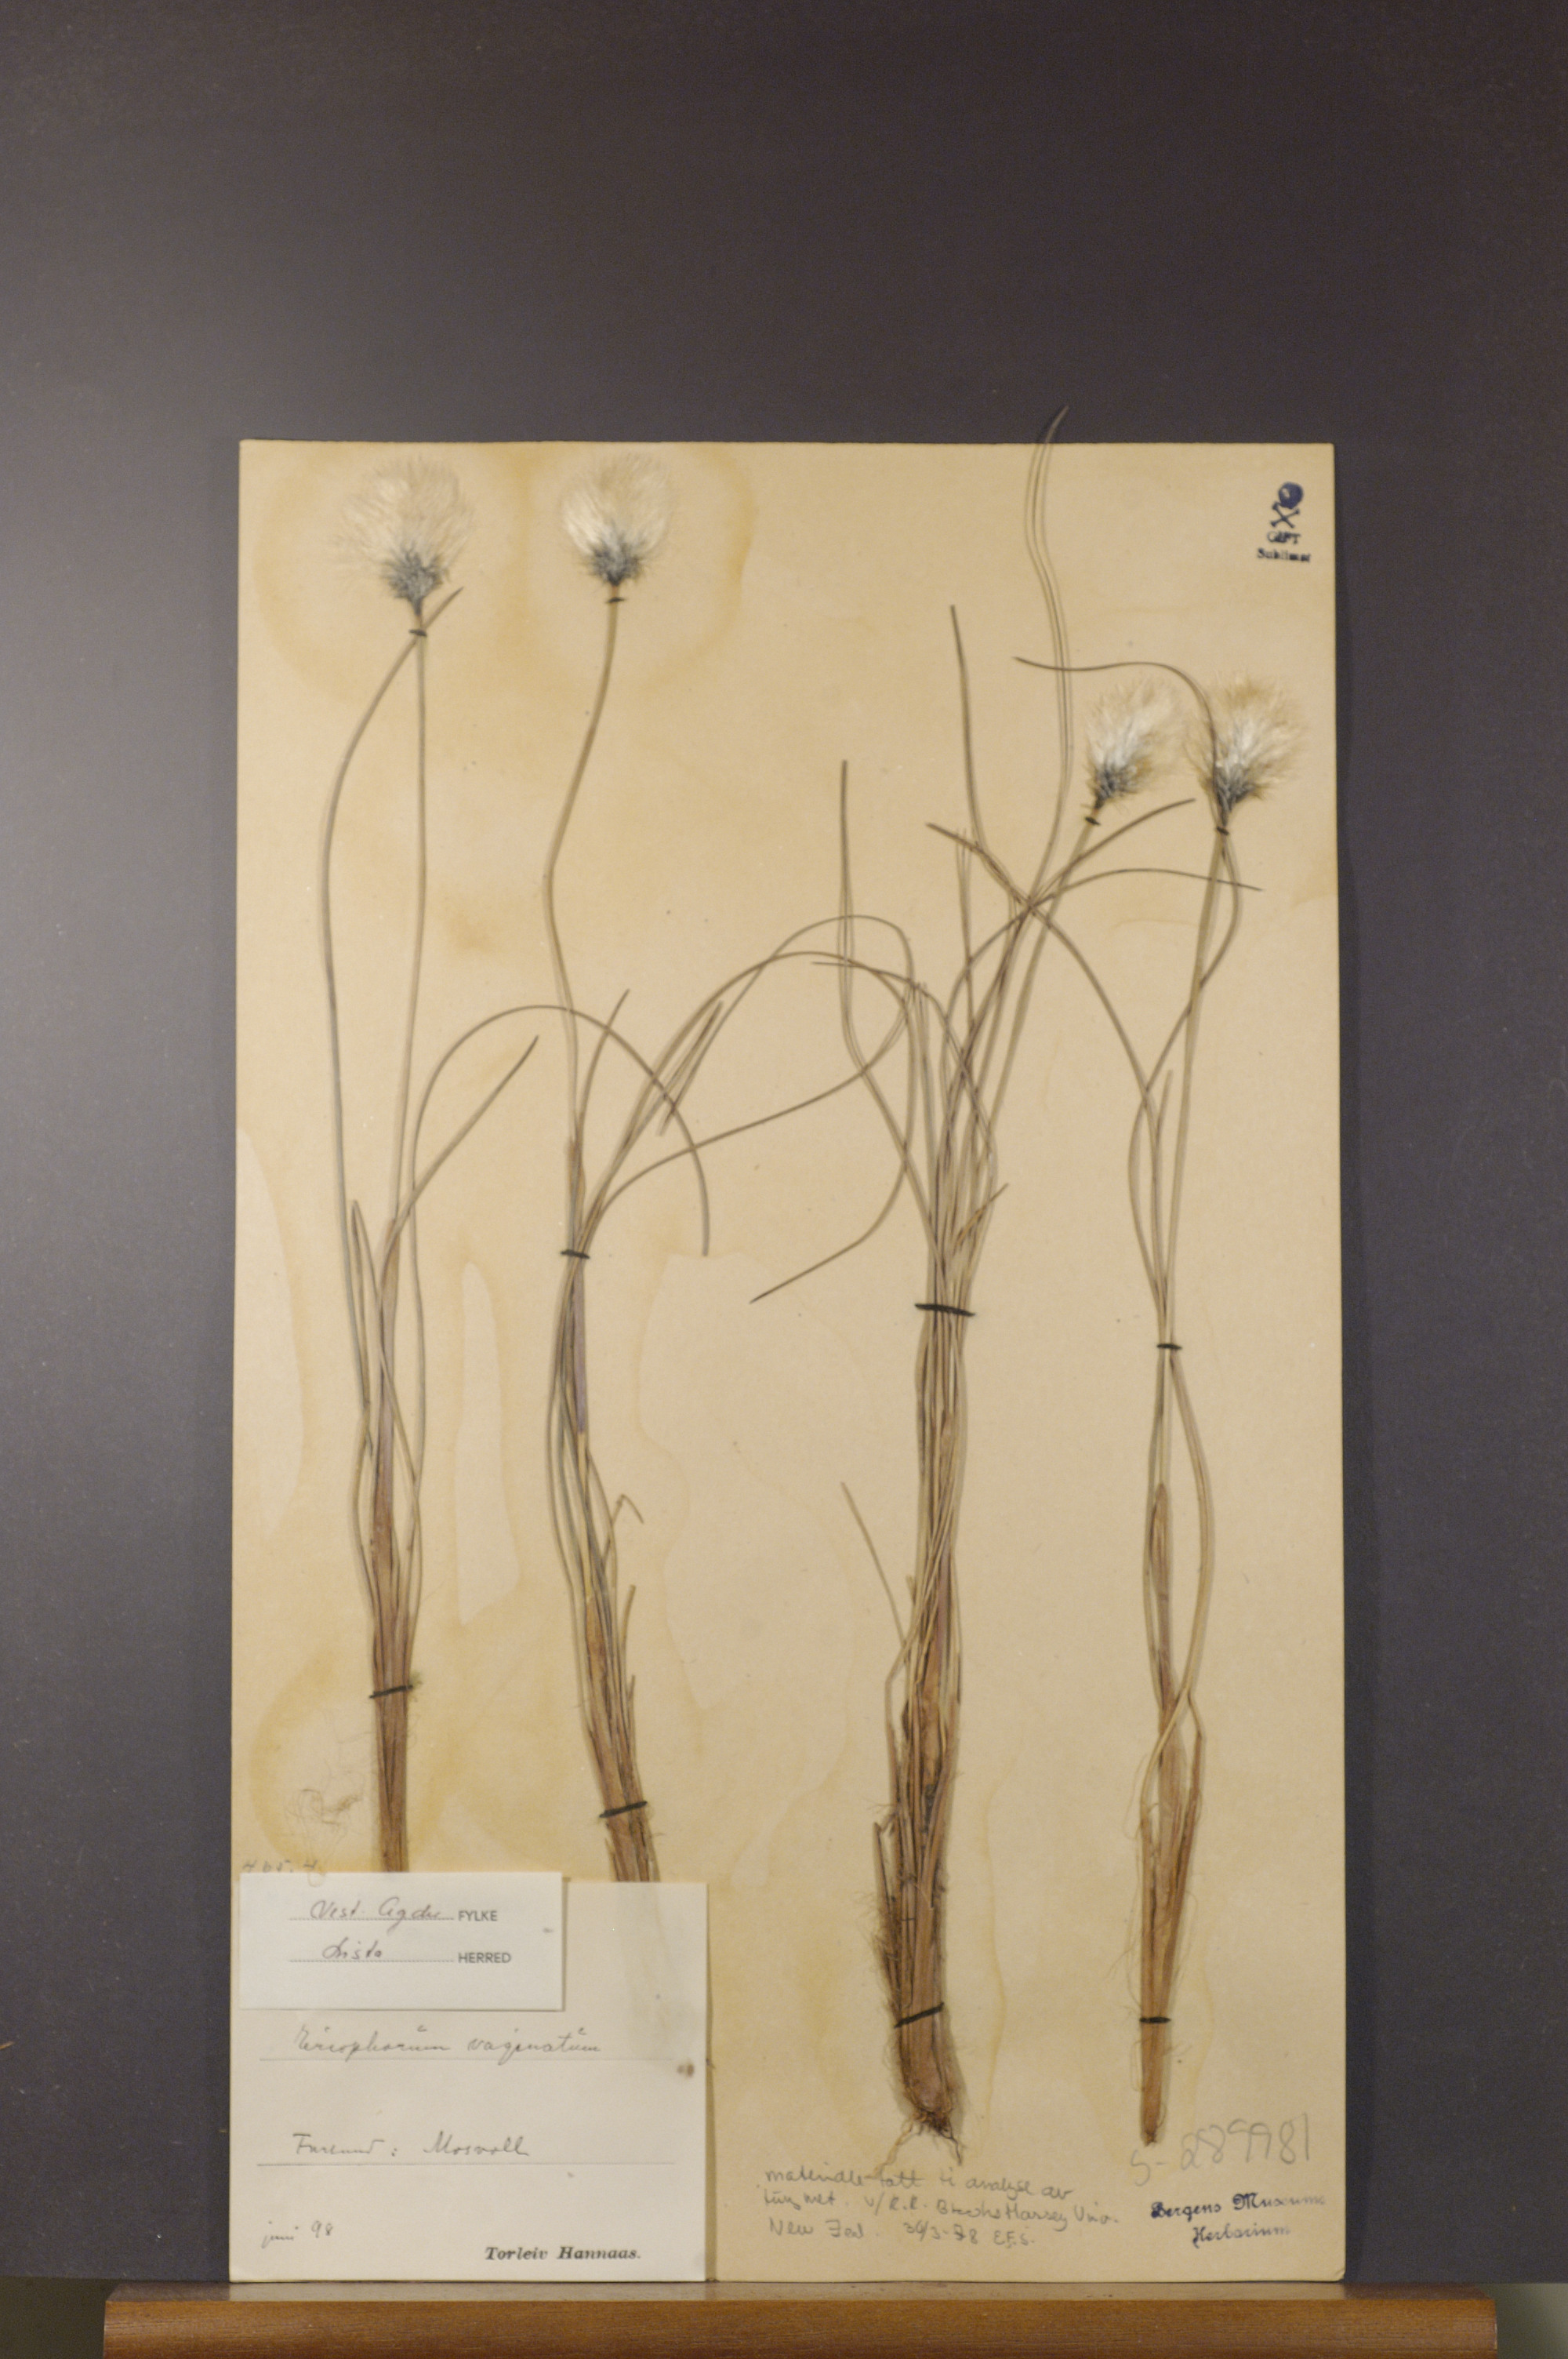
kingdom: Plantae
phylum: Tracheophyta
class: Liliopsida
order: Poales
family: Cyperaceae
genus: Eriophorum
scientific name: Eriophorum vaginatum
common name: Hare's-tail cottongrass
